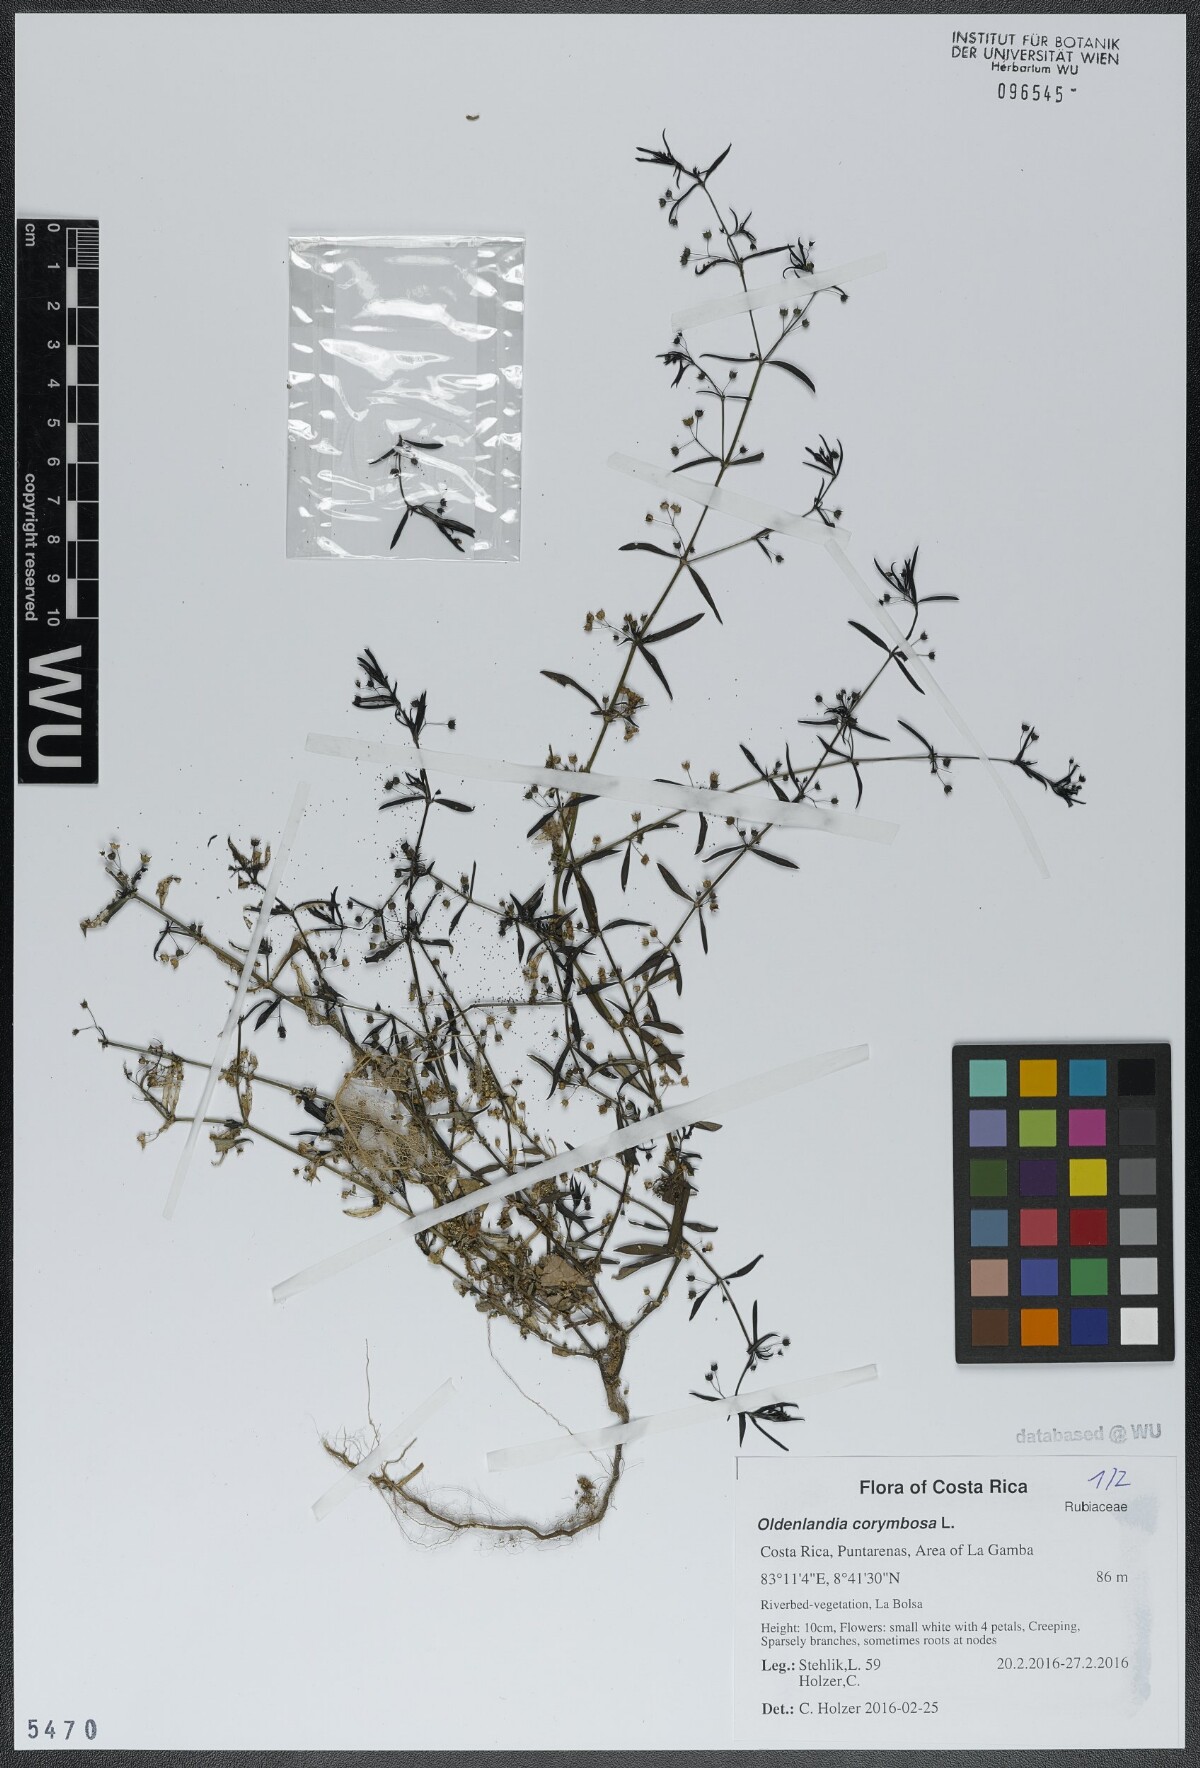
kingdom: Plantae
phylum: Tracheophyta
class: Magnoliopsida
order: Gentianales
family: Rubiaceae
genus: Oldenlandia
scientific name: Oldenlandia corymbosa
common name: Flat-top mille graines
